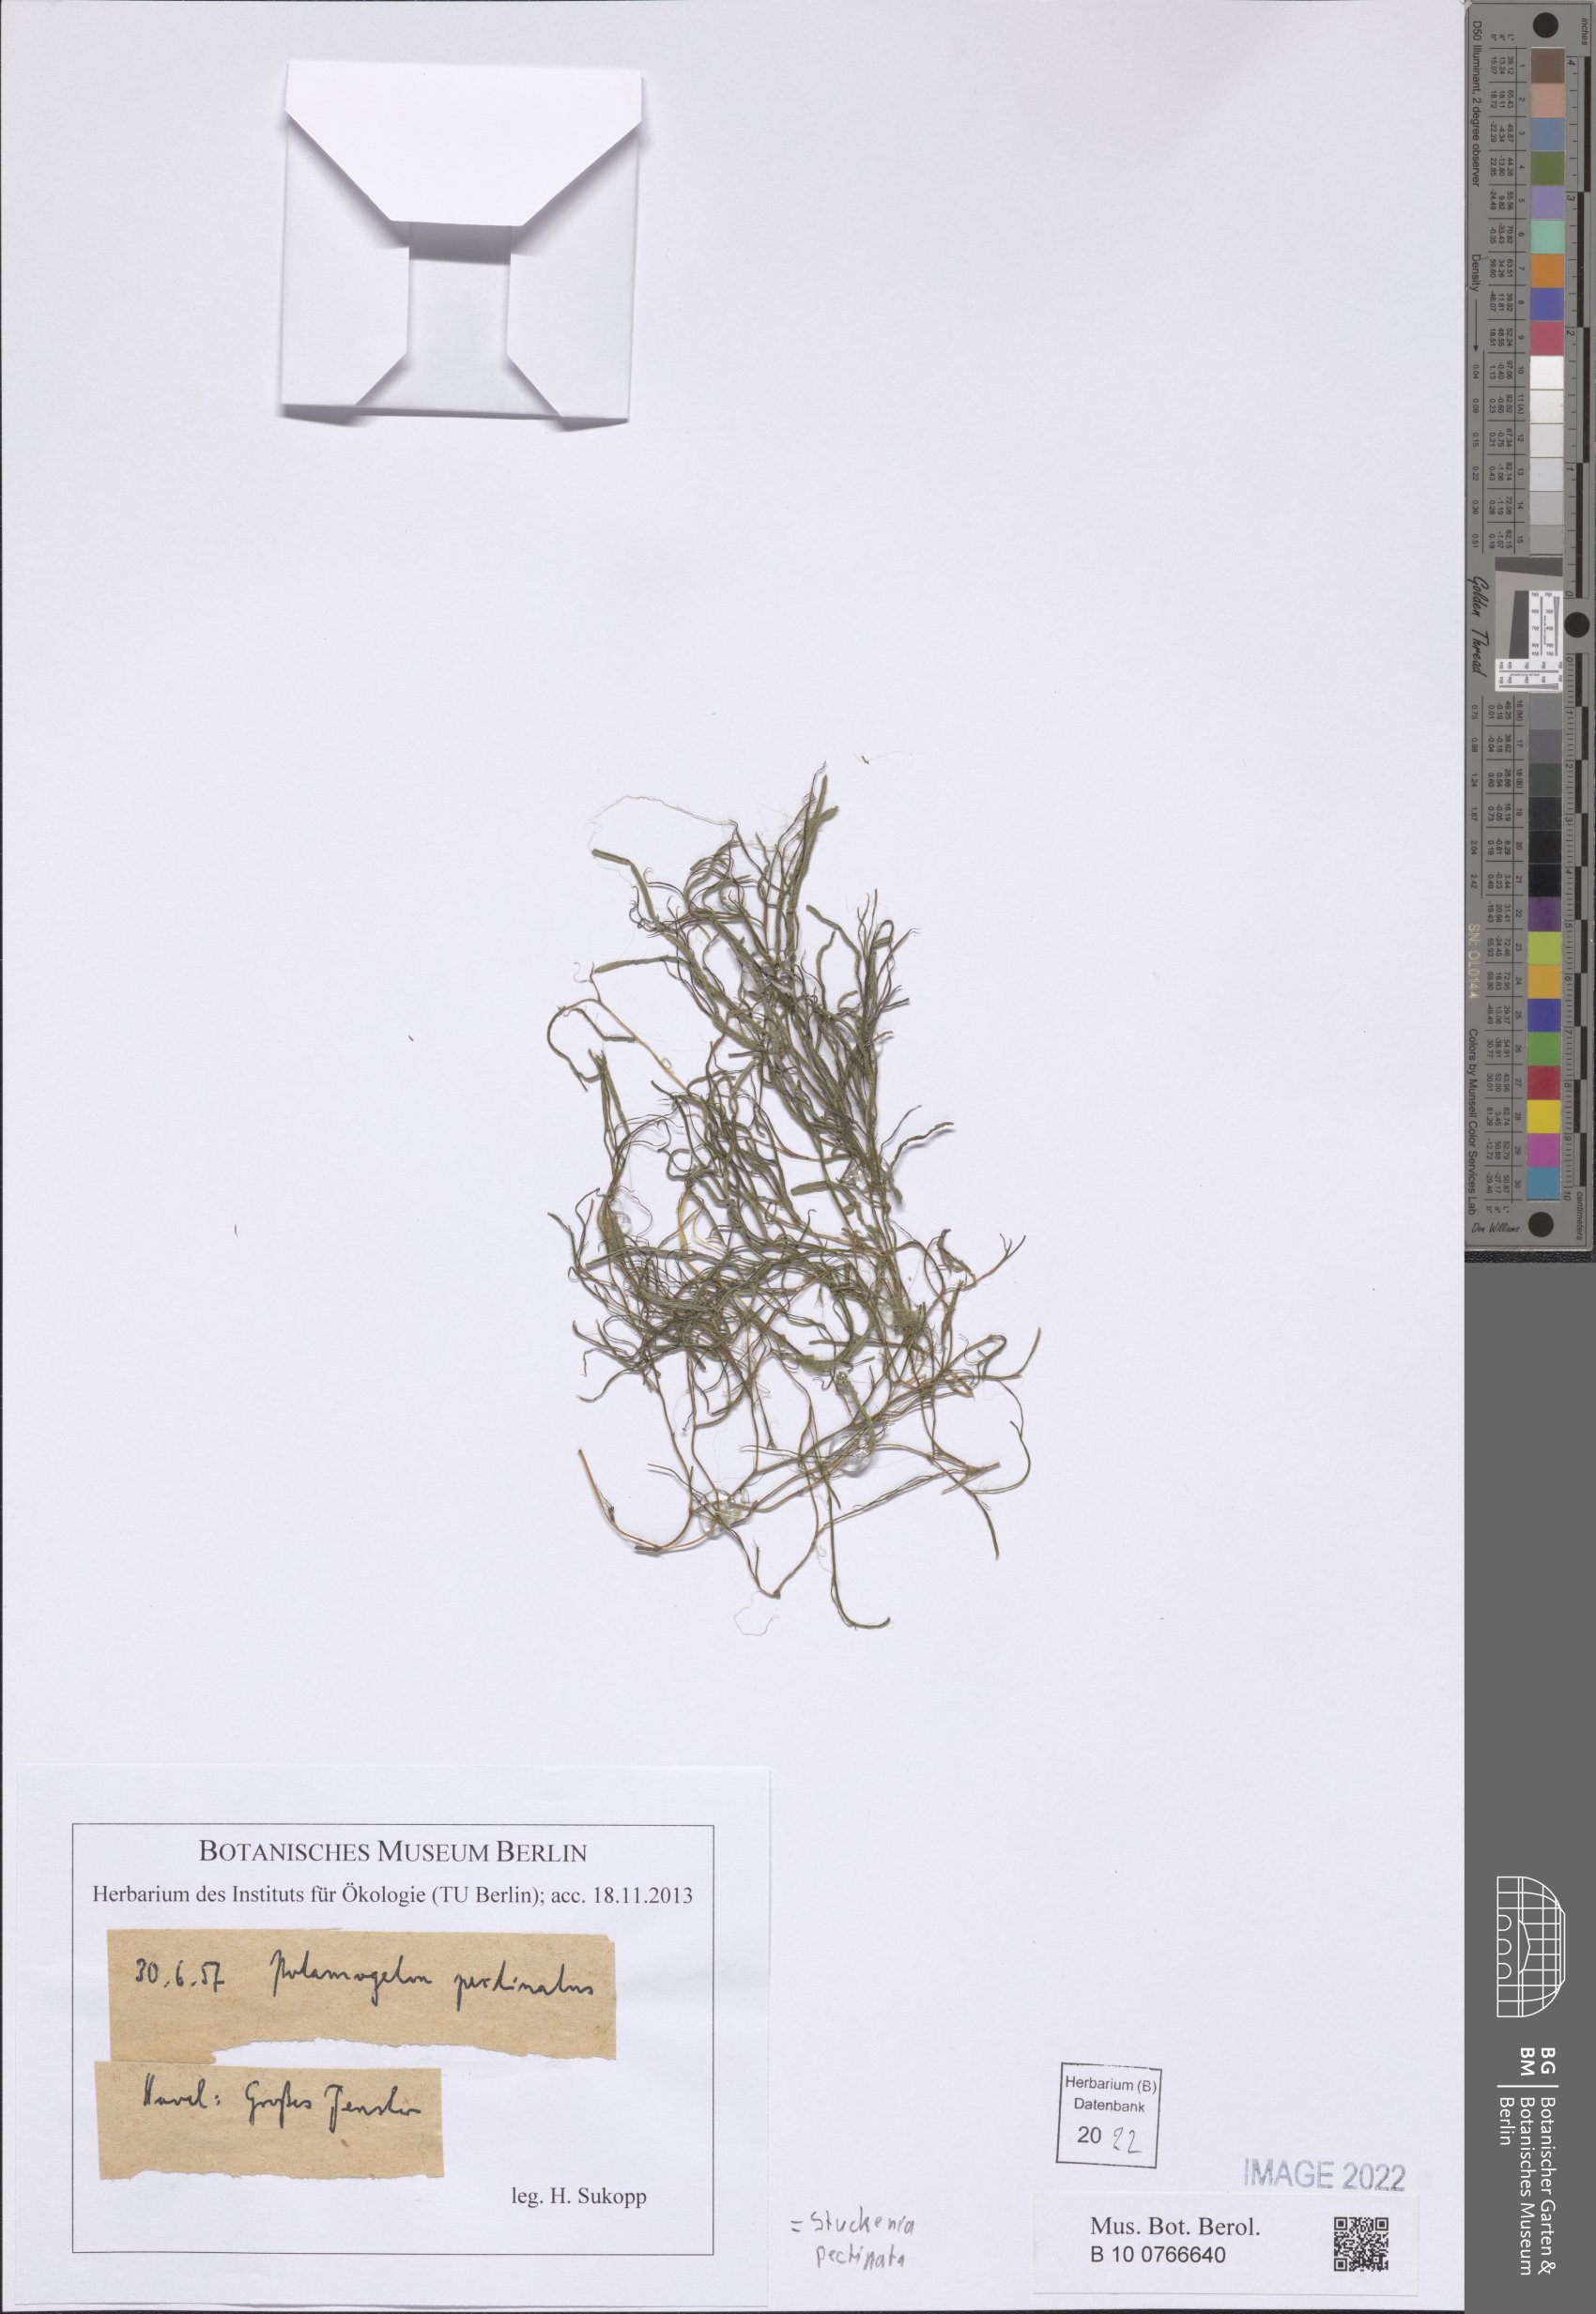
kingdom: Plantae
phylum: Tracheophyta
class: Liliopsida
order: Alismatales
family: Potamogetonaceae
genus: Stuckenia
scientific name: Stuckenia pectinata
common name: Sago pondweed
